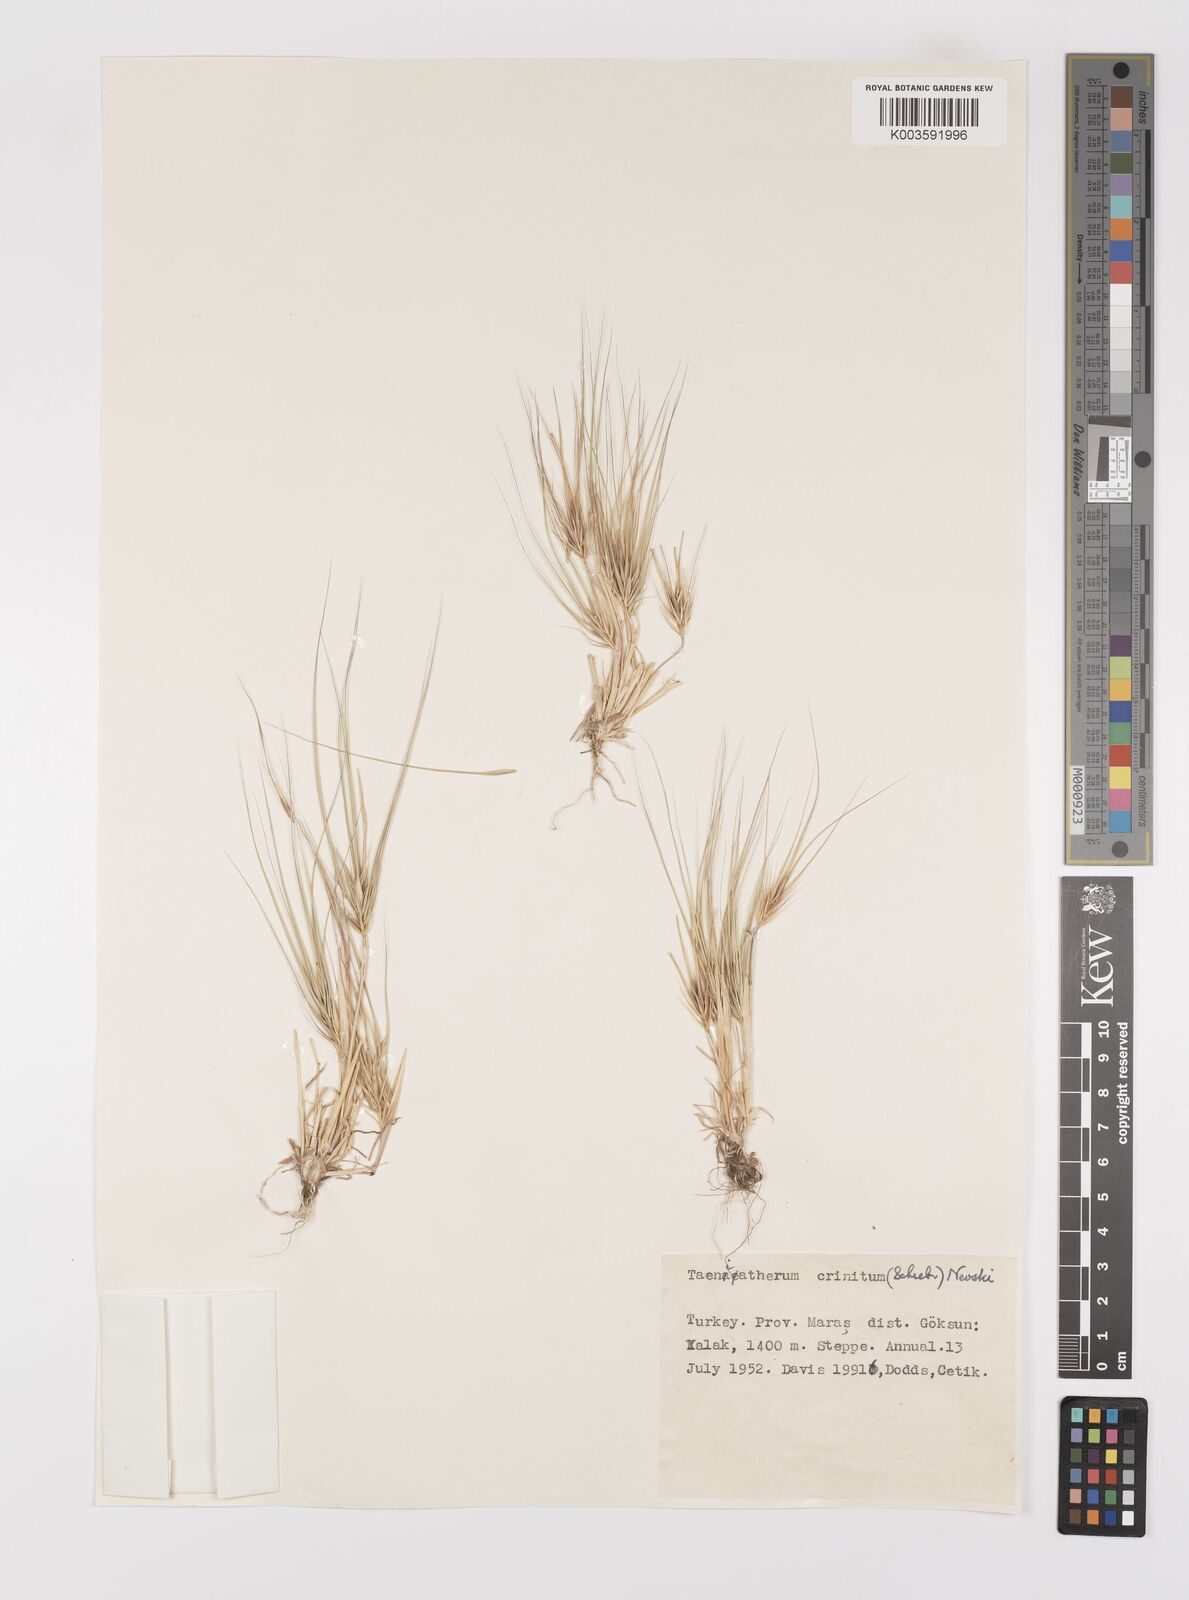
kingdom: Plantae
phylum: Tracheophyta
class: Liliopsida
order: Poales
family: Poaceae
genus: Taeniatherum
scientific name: Taeniatherum caput-medusae
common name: Medusahead
